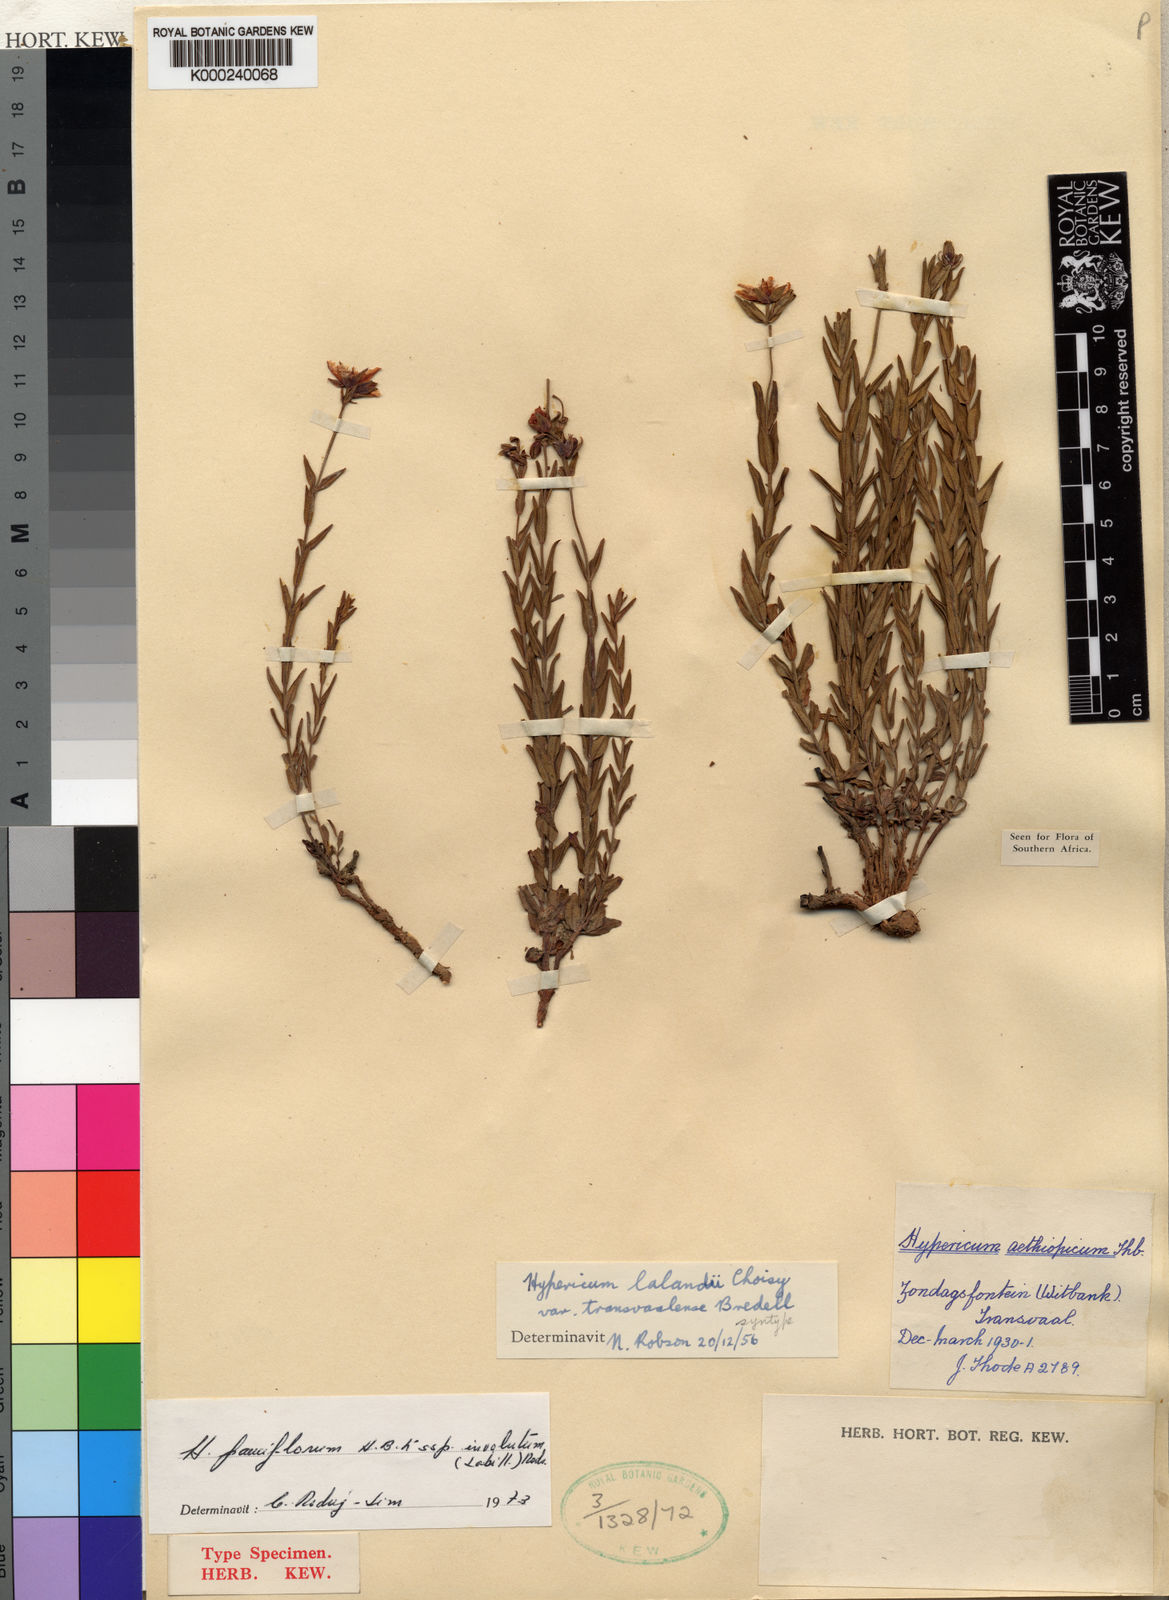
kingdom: Plantae
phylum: Tracheophyta
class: Magnoliopsida
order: Malpighiales
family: Hypericaceae
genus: Hypericum
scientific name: Hypericum lalandii
